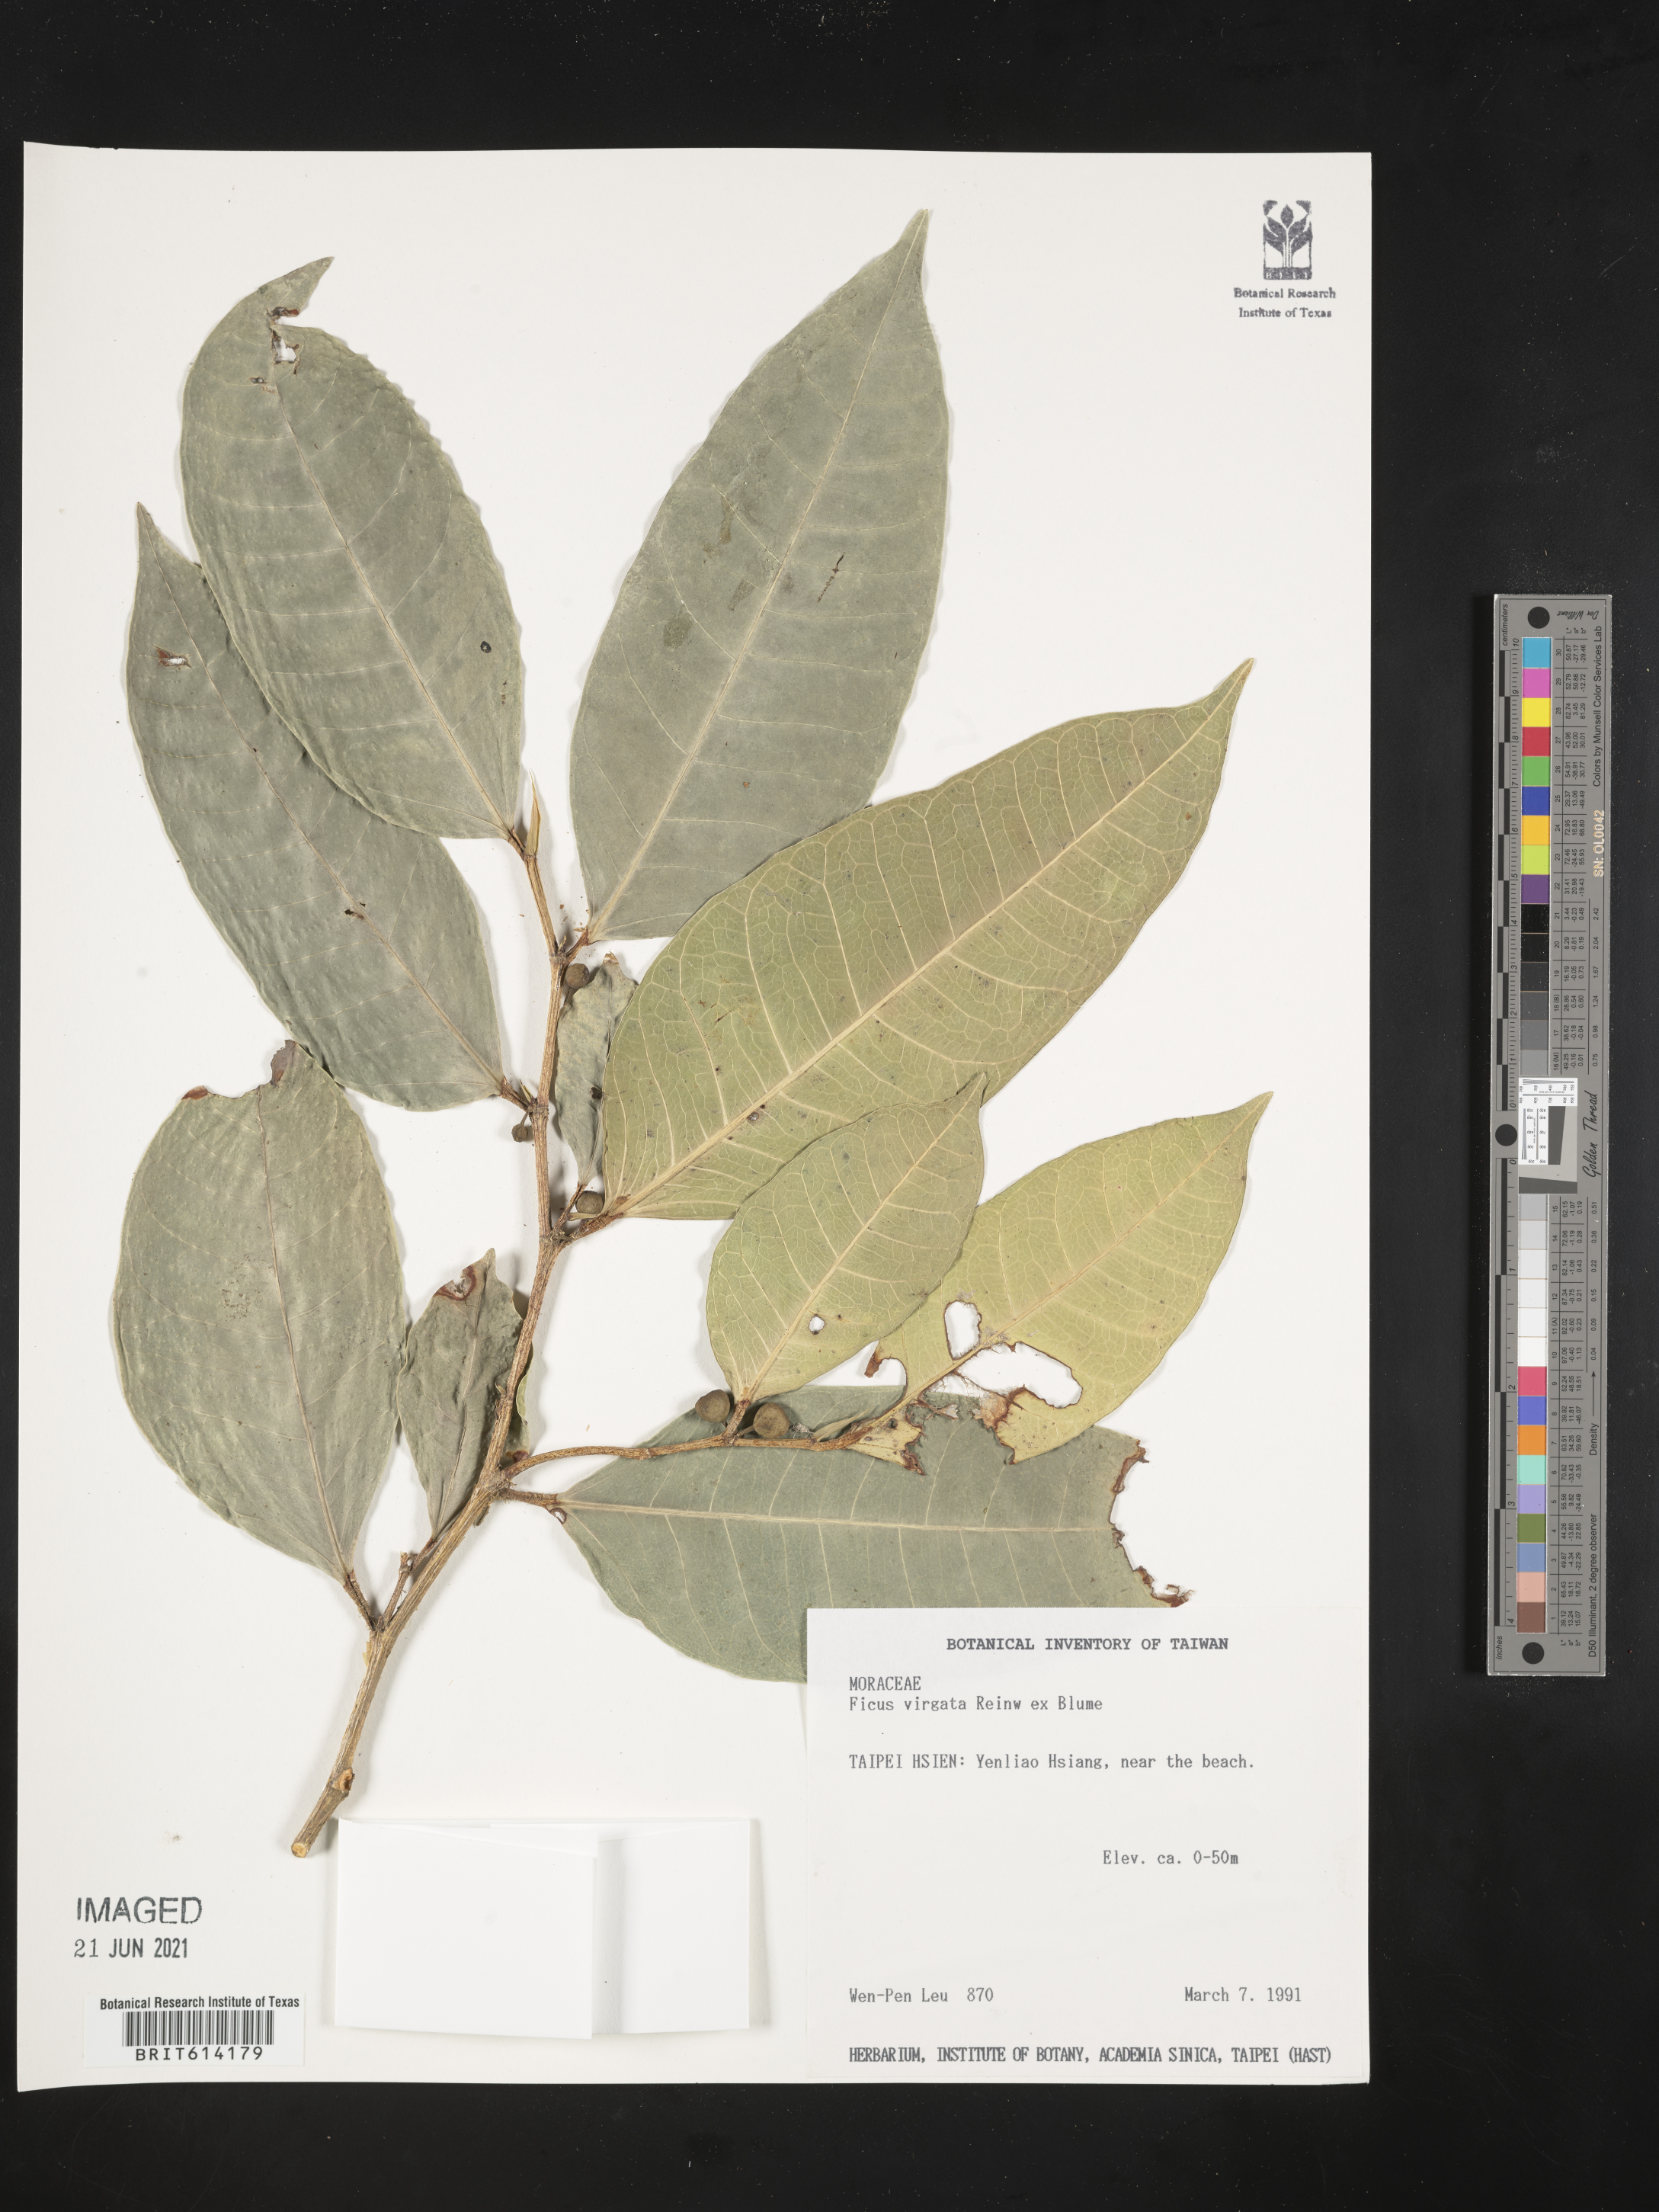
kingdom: Plantae
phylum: Tracheophyta
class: Magnoliopsida
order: Rosales
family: Moraceae
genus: Ficus
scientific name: Ficus virgata
